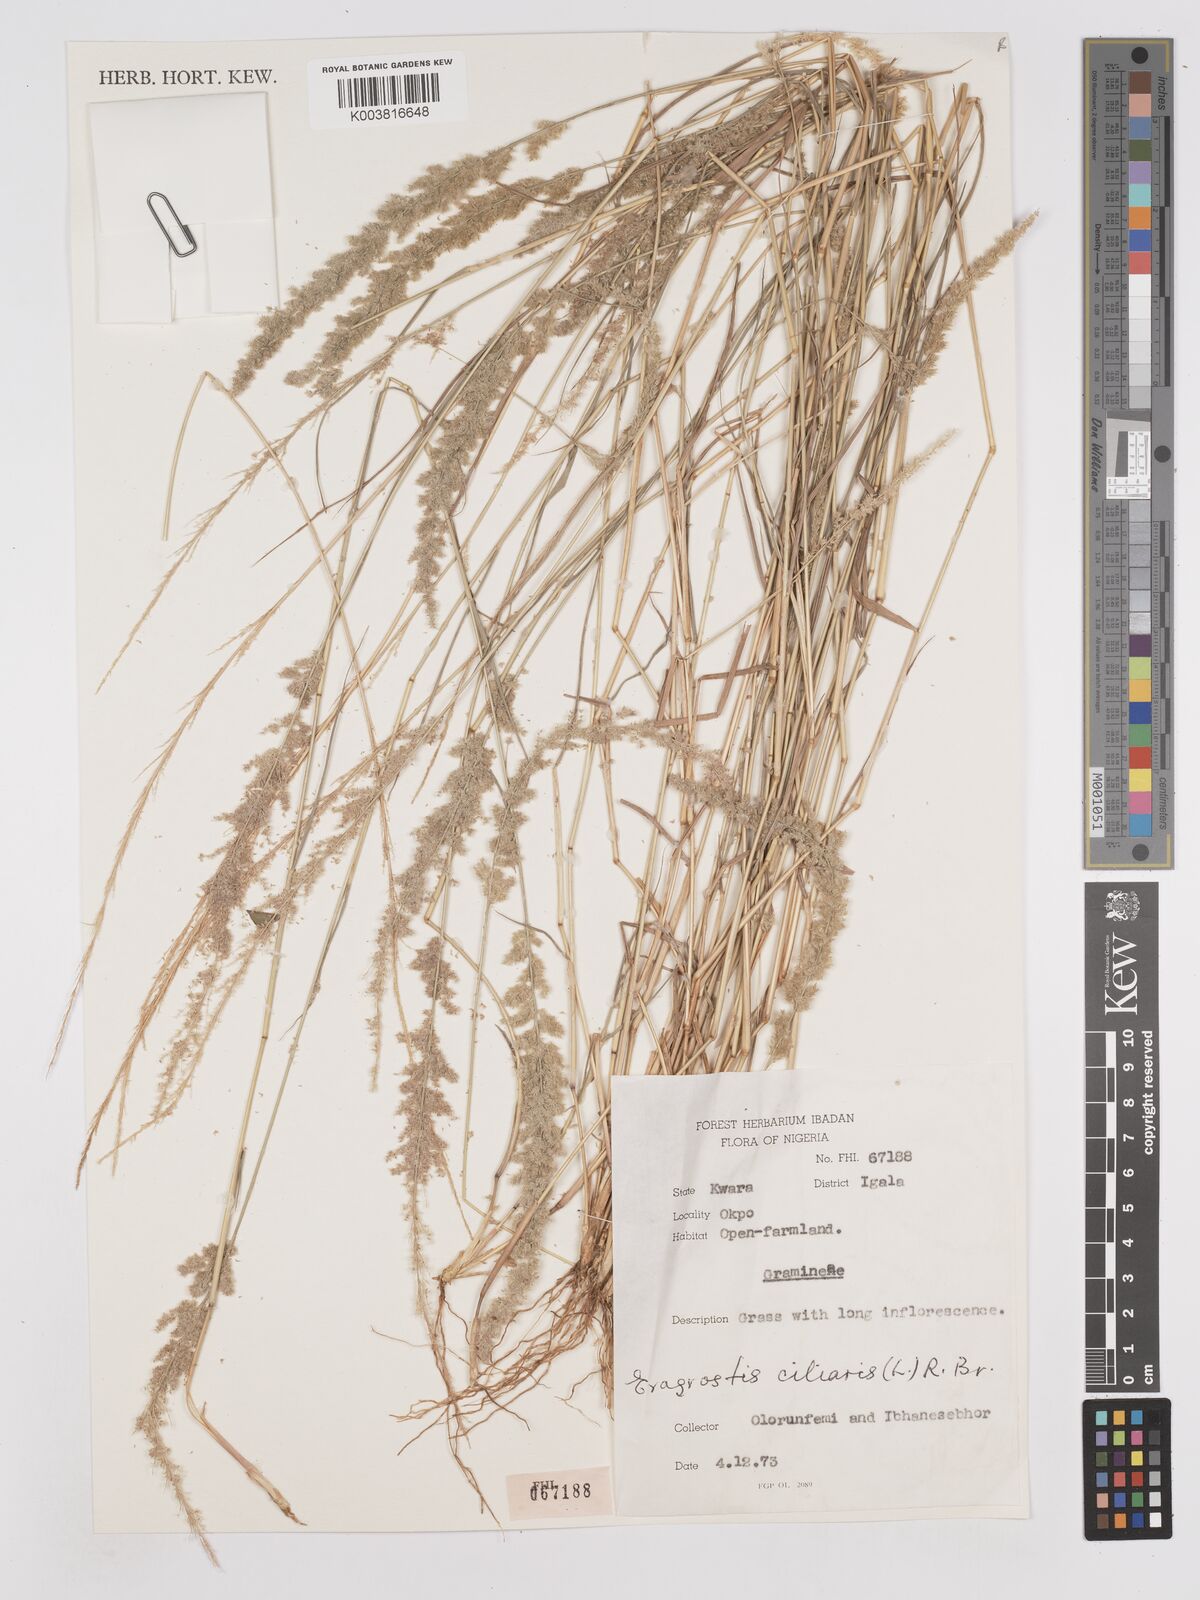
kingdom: Plantae
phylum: Tracheophyta
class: Liliopsida
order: Poales
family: Poaceae
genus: Eragrostis
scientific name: Eragrostis ciliaris
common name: Gophertail lovegrass
